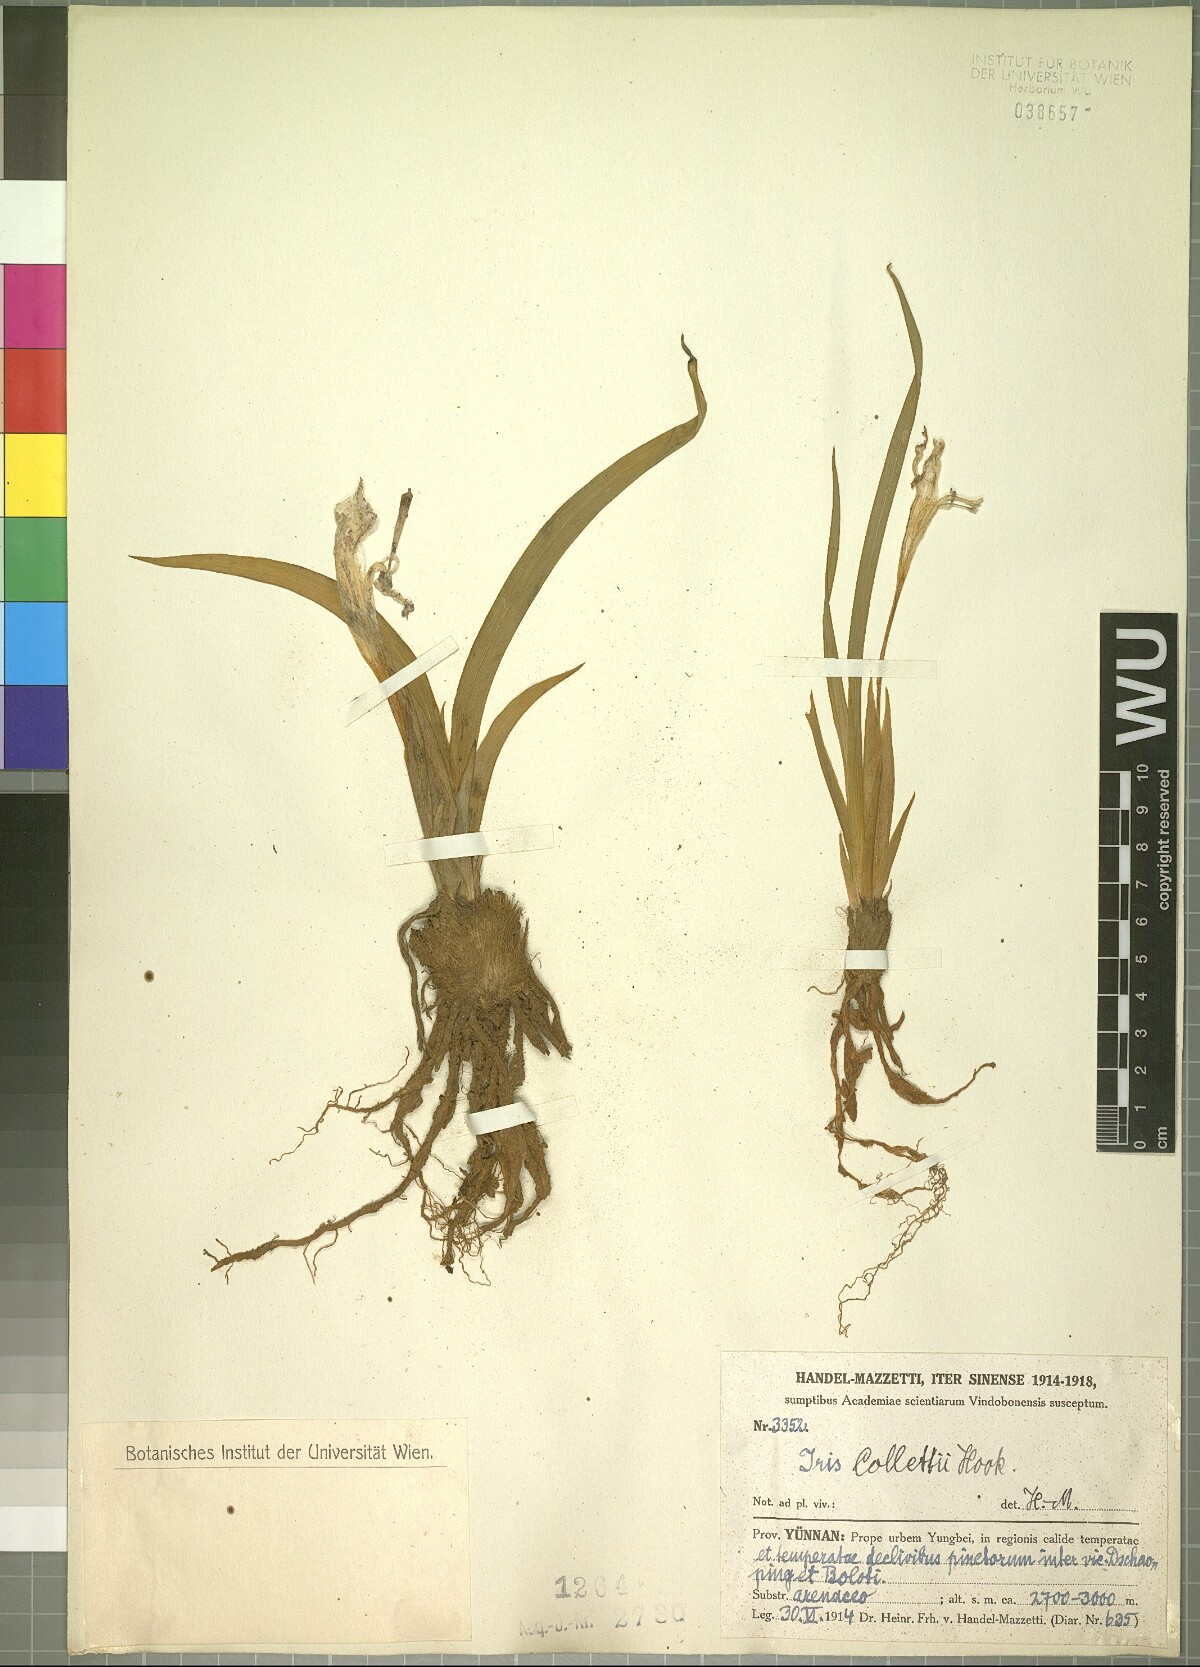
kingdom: Plantae
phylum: Tracheophyta
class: Liliopsida
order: Asparagales
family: Iridaceae
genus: Iris
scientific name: Iris collettii
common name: Plateau iris
